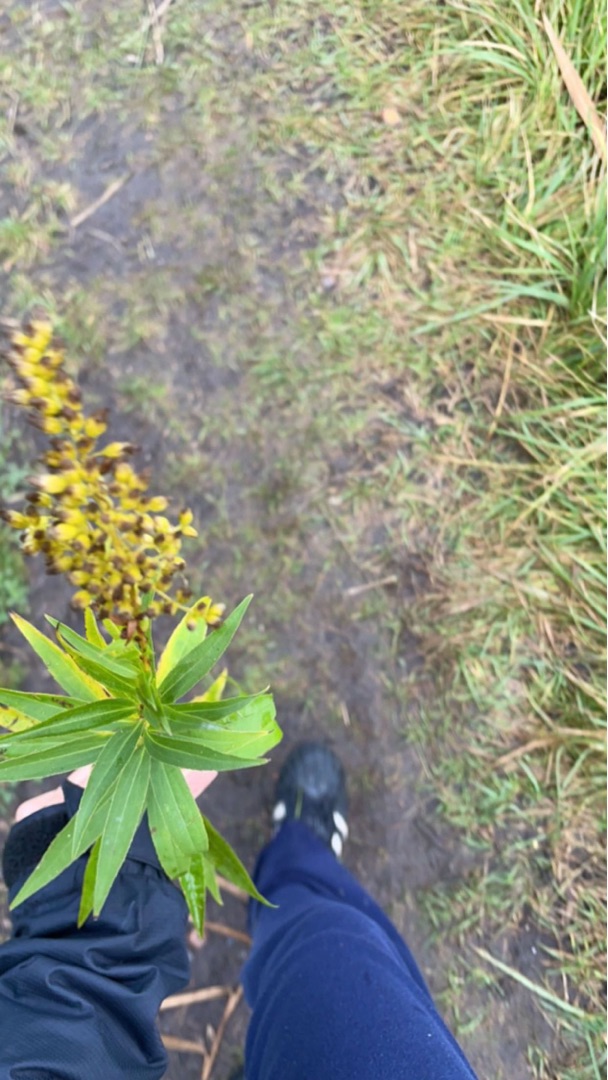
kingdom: Plantae
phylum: Tracheophyta
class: Magnoliopsida
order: Asterales
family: Asteraceae
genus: Solidago
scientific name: Solidago gigantea
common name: Sildig gyldenris
